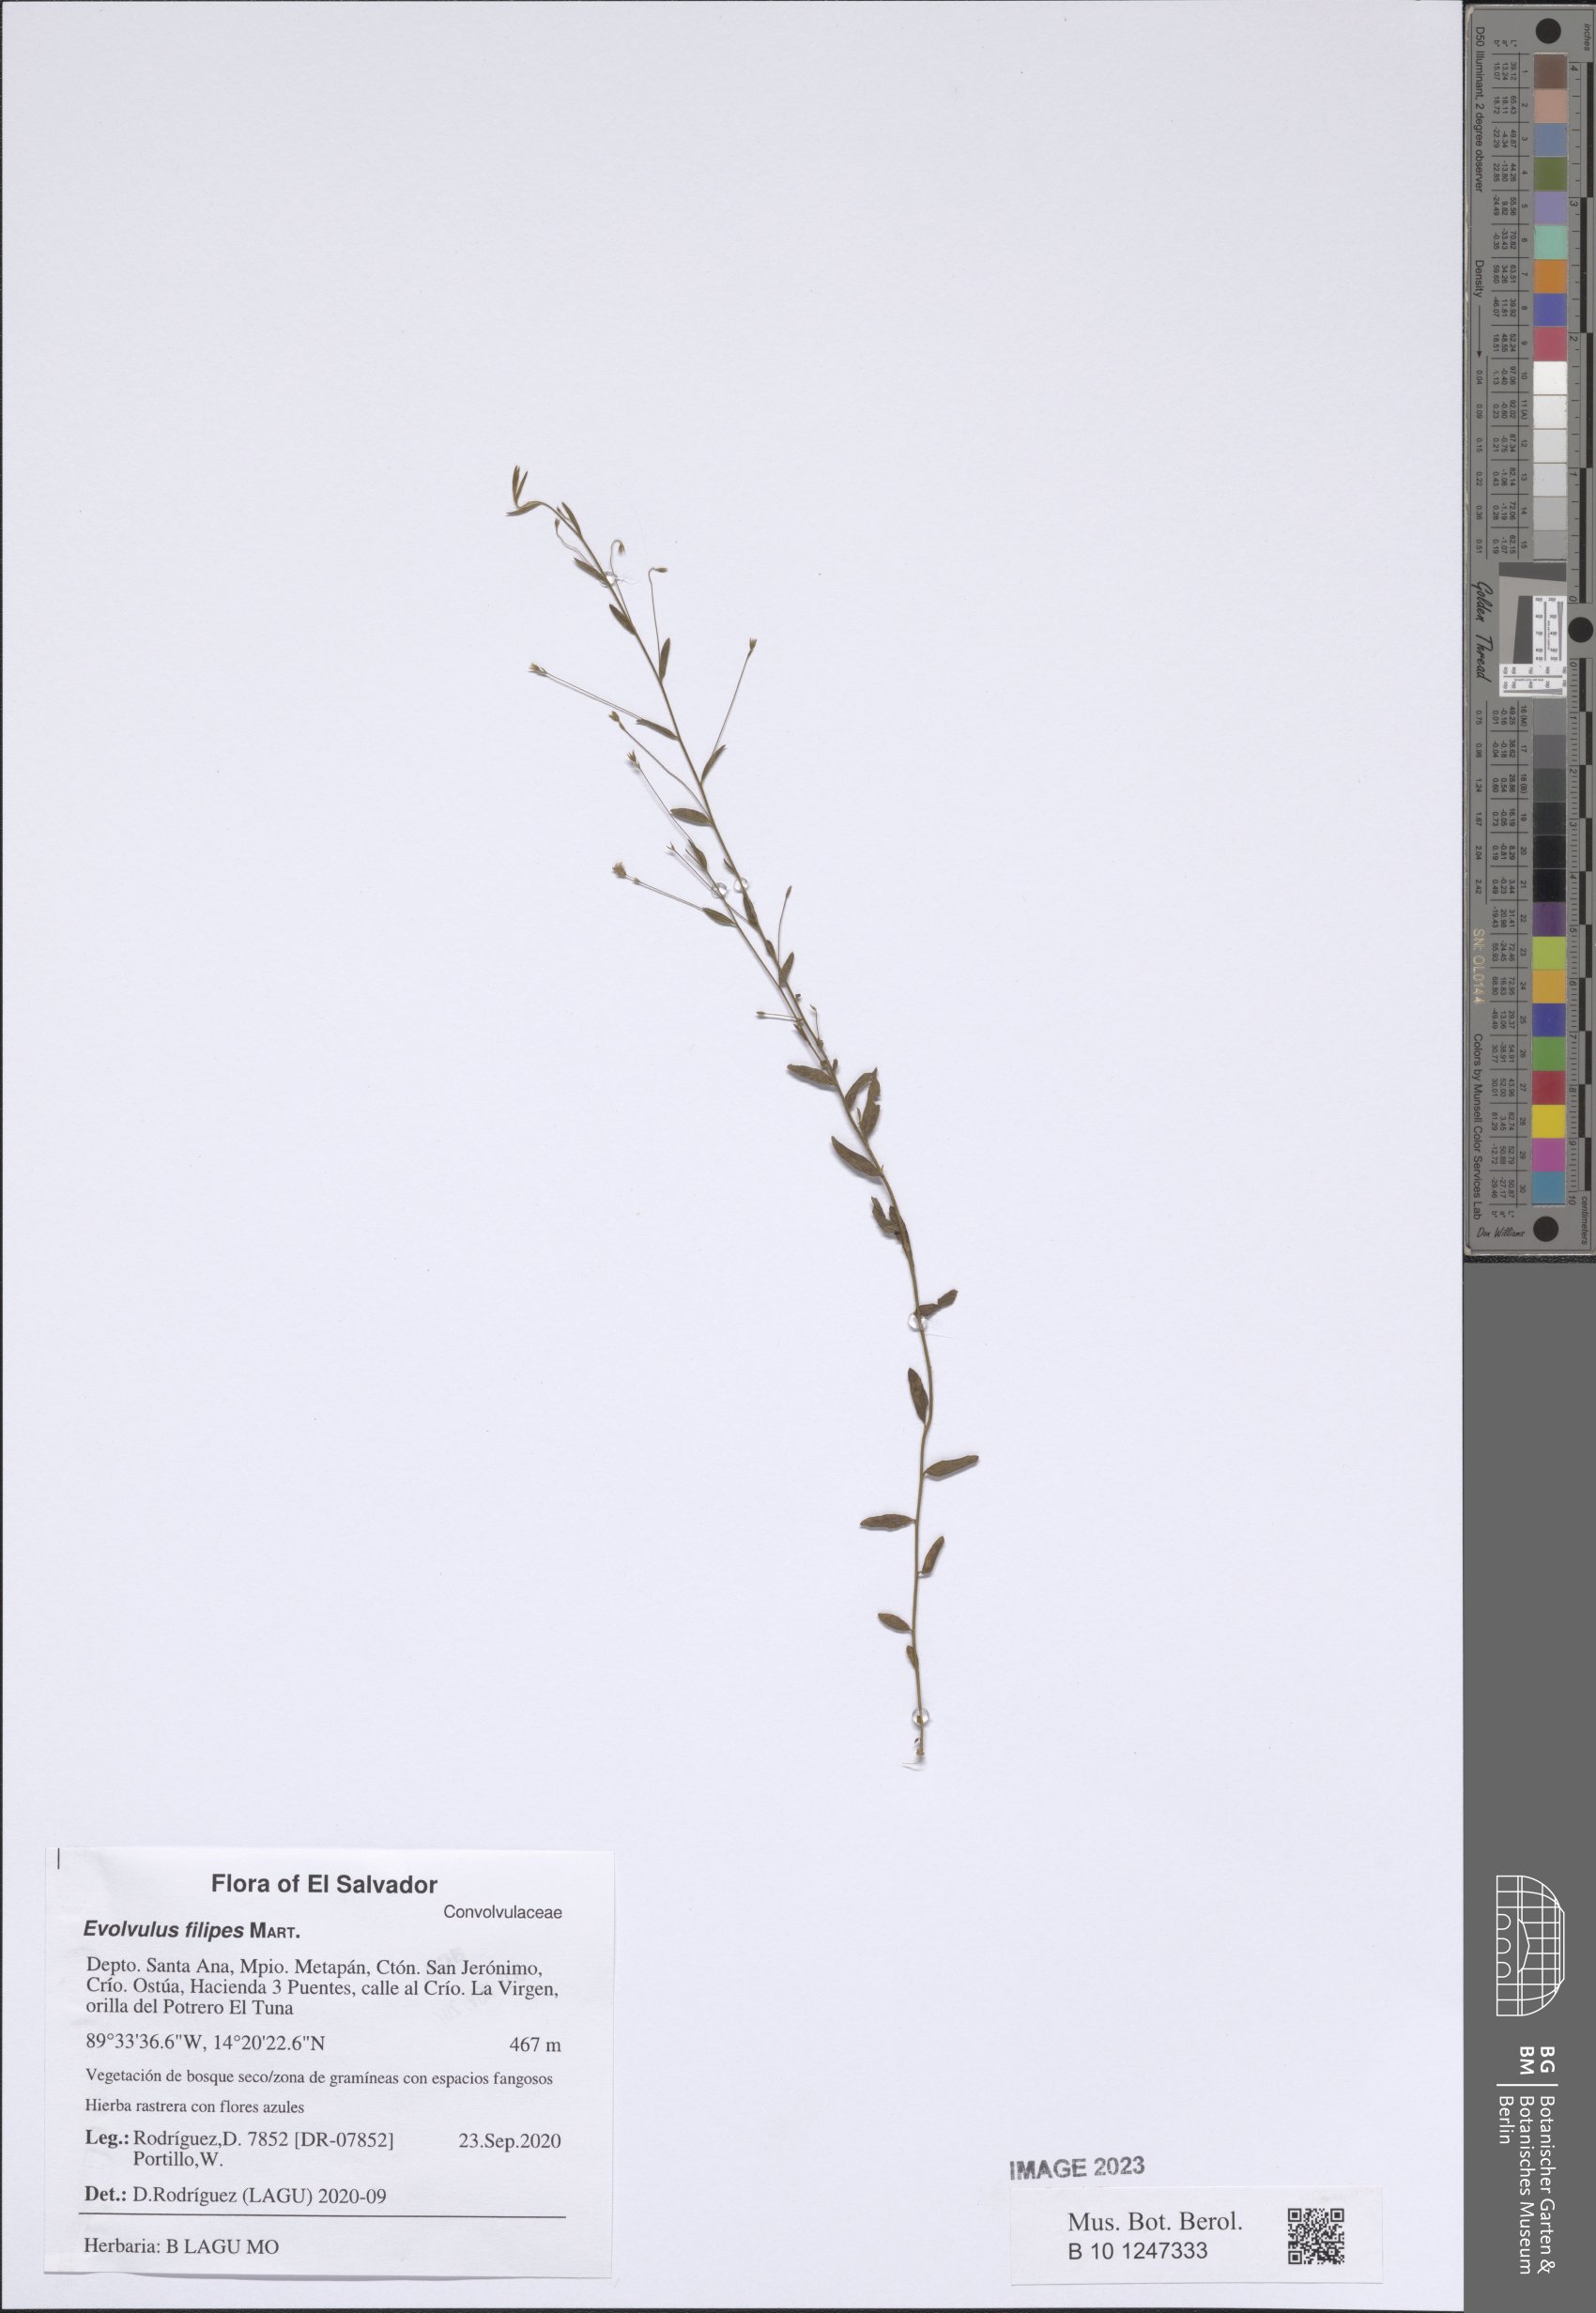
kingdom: Plantae
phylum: Tracheophyta
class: Magnoliopsida
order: Solanales
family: Convolvulaceae
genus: Evolvulus
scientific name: Evolvulus filipes
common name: Maryland dwarf morning-glory
